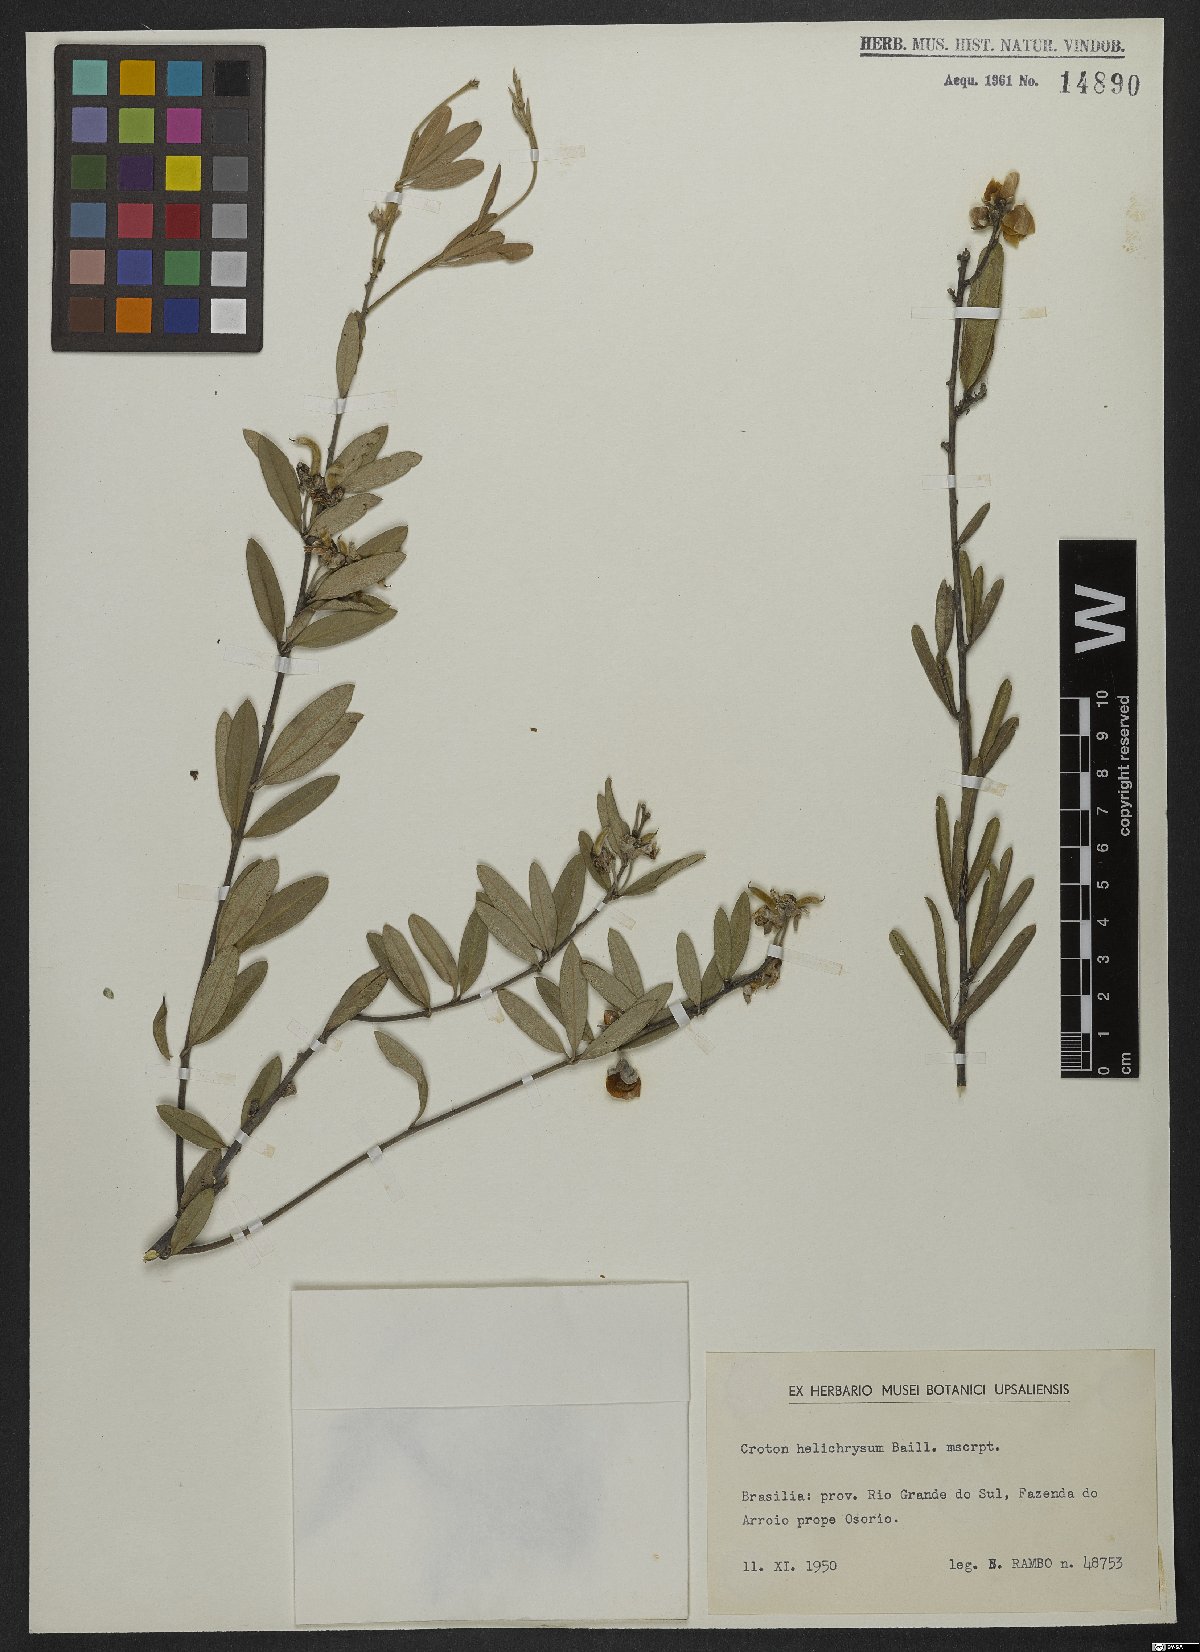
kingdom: Plantae
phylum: Tracheophyta
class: Magnoliopsida
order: Malpighiales
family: Euphorbiaceae
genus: Croton
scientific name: Croton helichrysum
